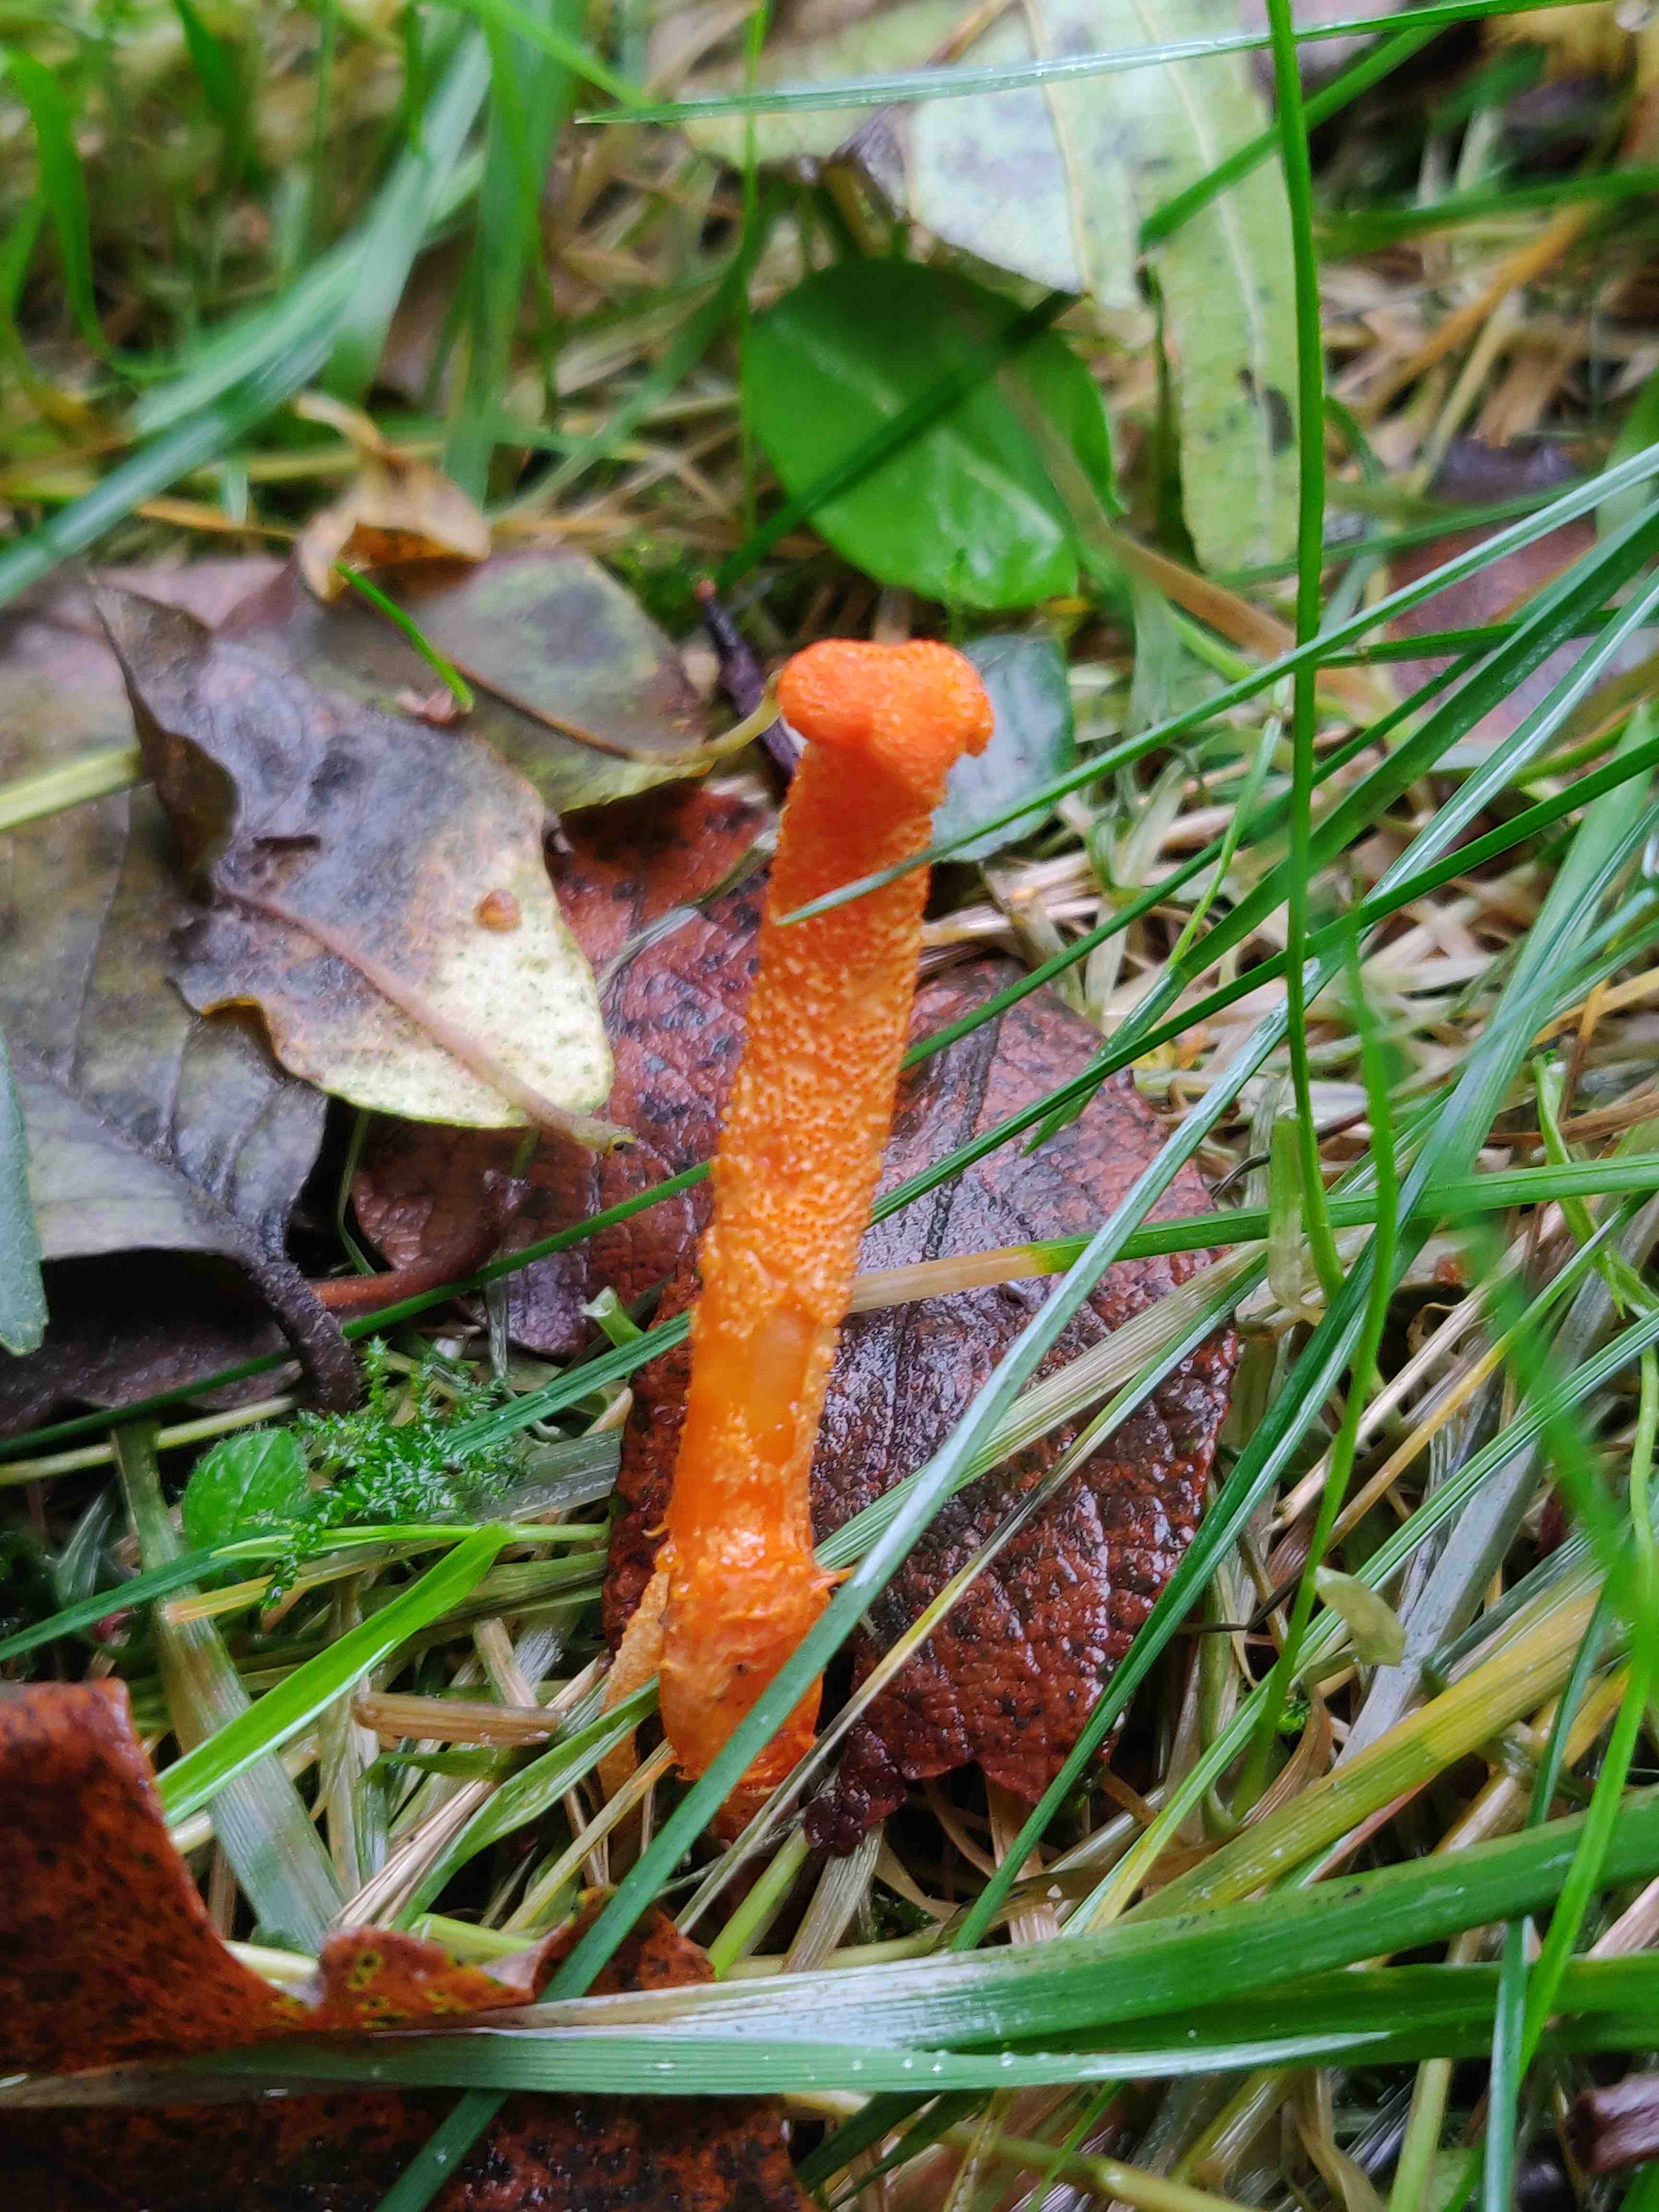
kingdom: Fungi
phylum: Ascomycota
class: Sordariomycetes
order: Hypocreales
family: Cordycipitaceae
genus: Cordyceps
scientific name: Cordyceps militaris
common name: puppe-snyltekølle
